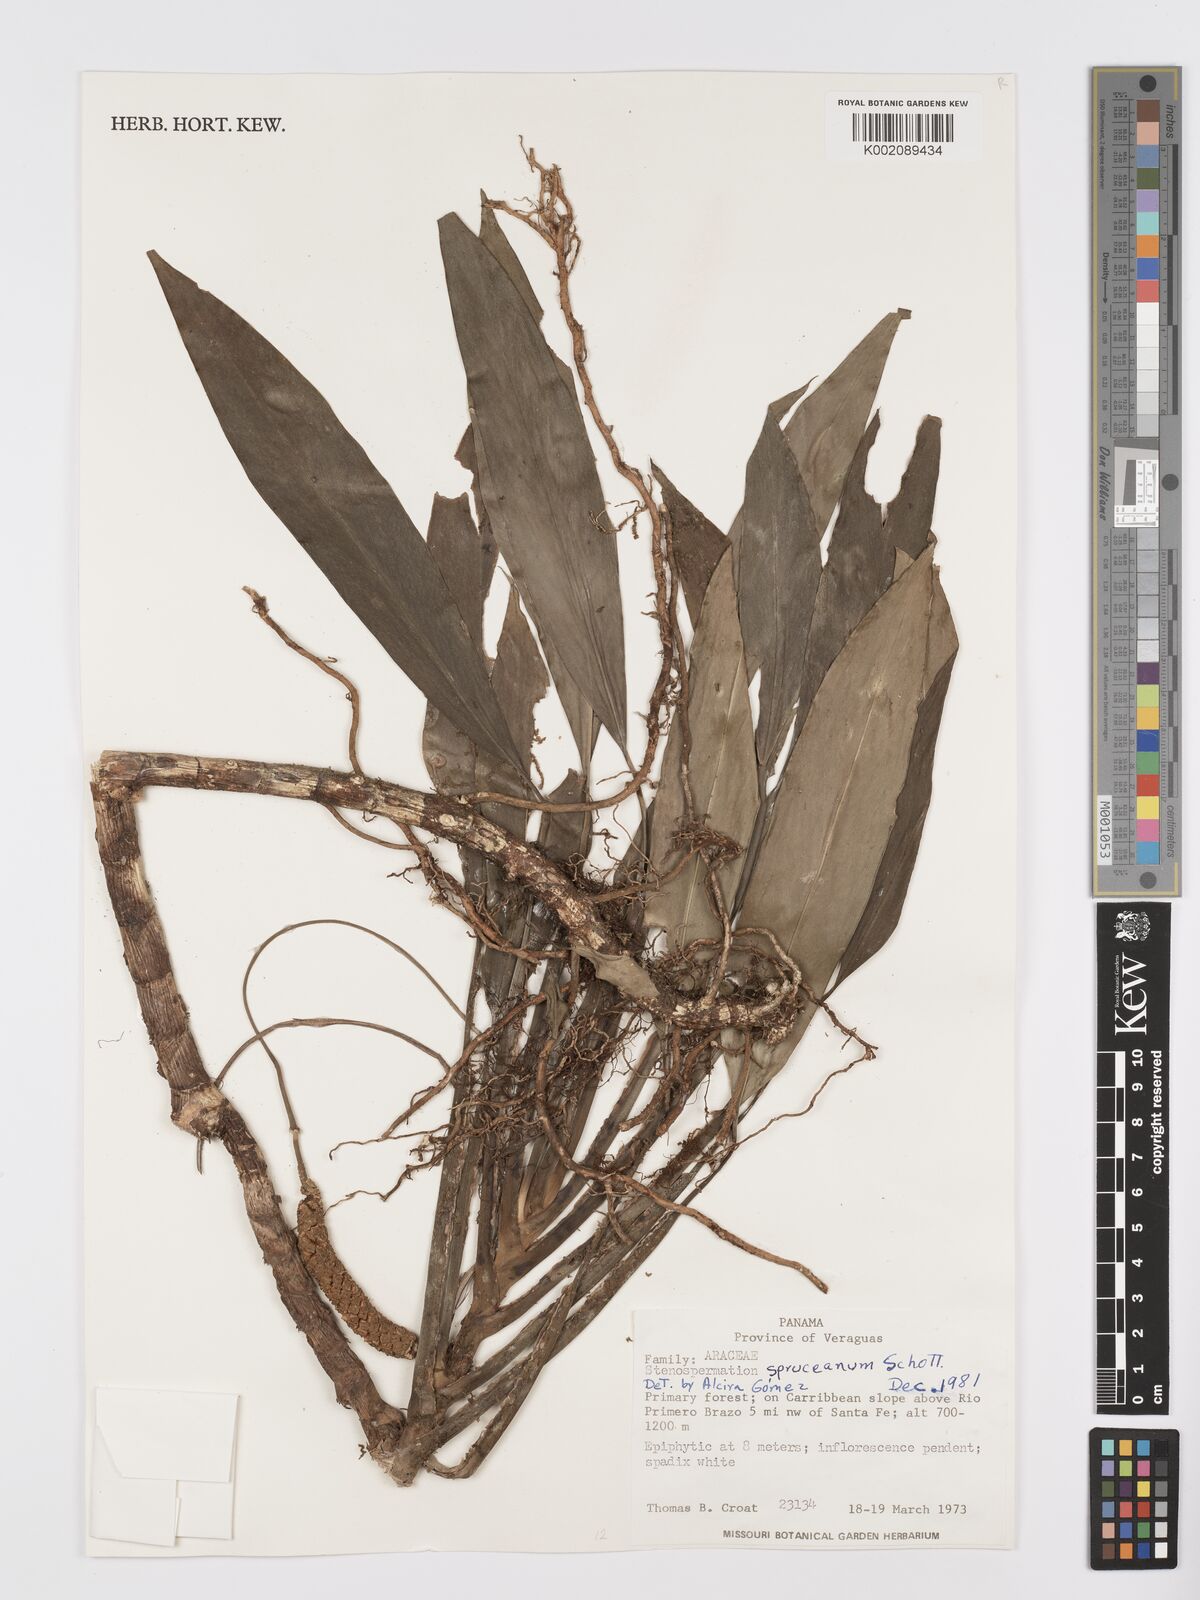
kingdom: Plantae
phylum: Tracheophyta
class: Liliopsida
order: Alismatales
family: Araceae
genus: Stenospermation
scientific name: Stenospermation spruceanum
